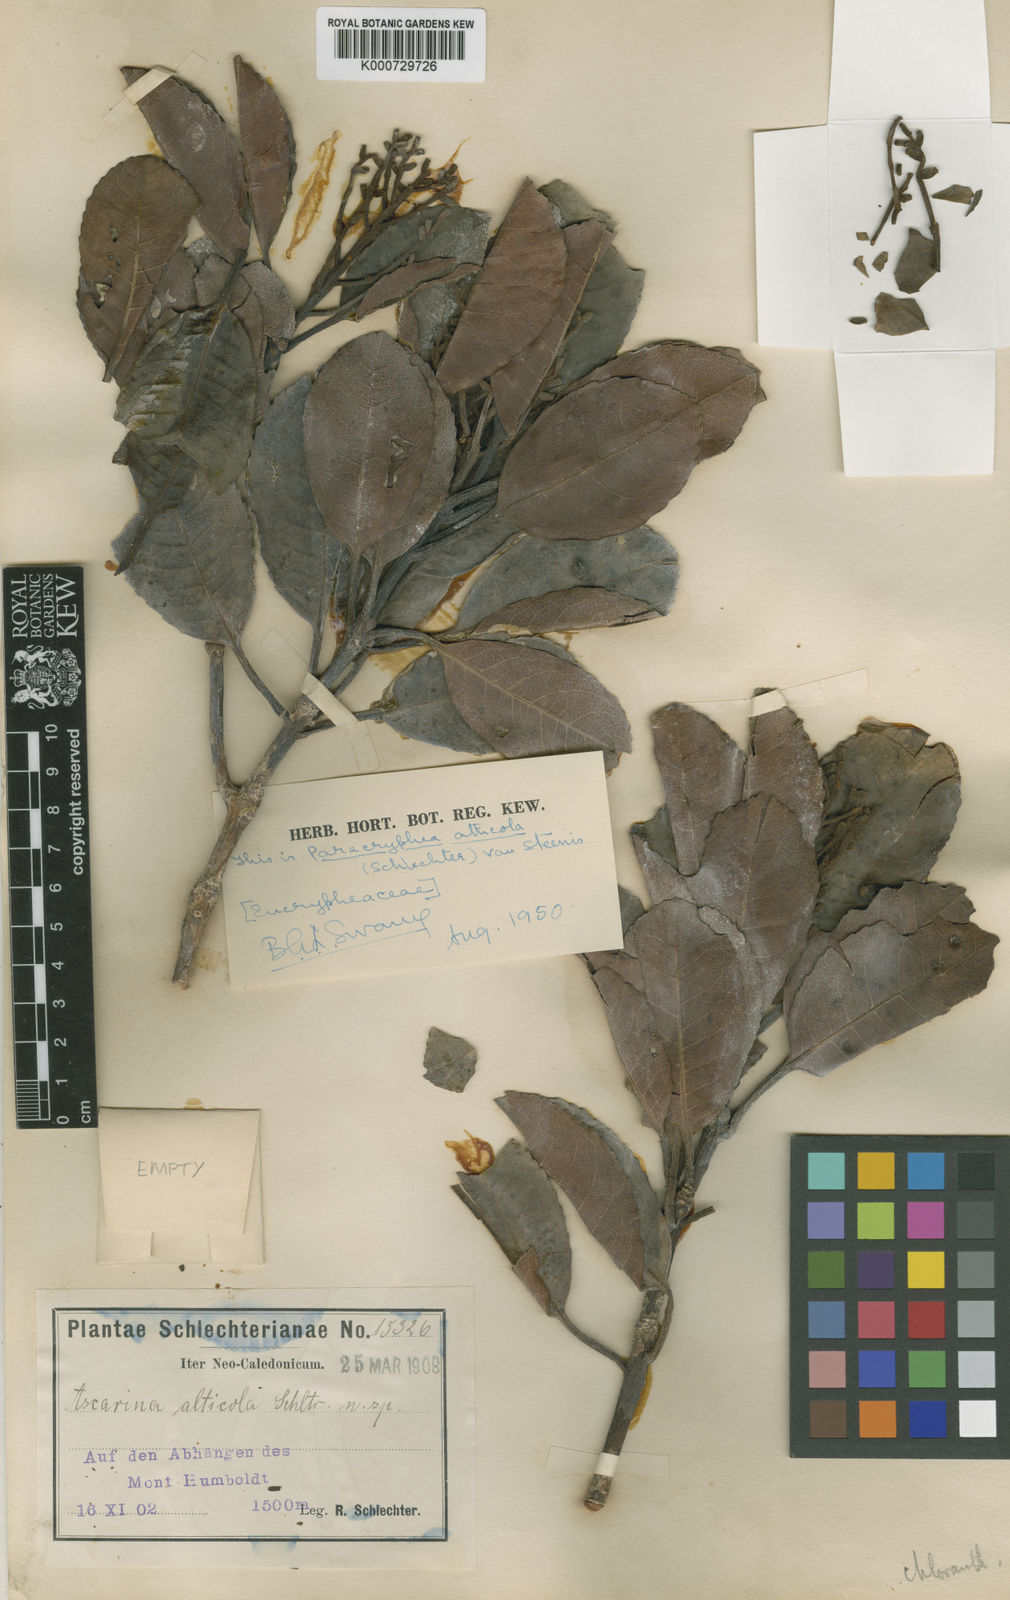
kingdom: Plantae
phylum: Tracheophyta
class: Magnoliopsida
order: Paracryphiales
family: Paracryphiaceae
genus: Paracryphia
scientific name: Paracryphia alticola
